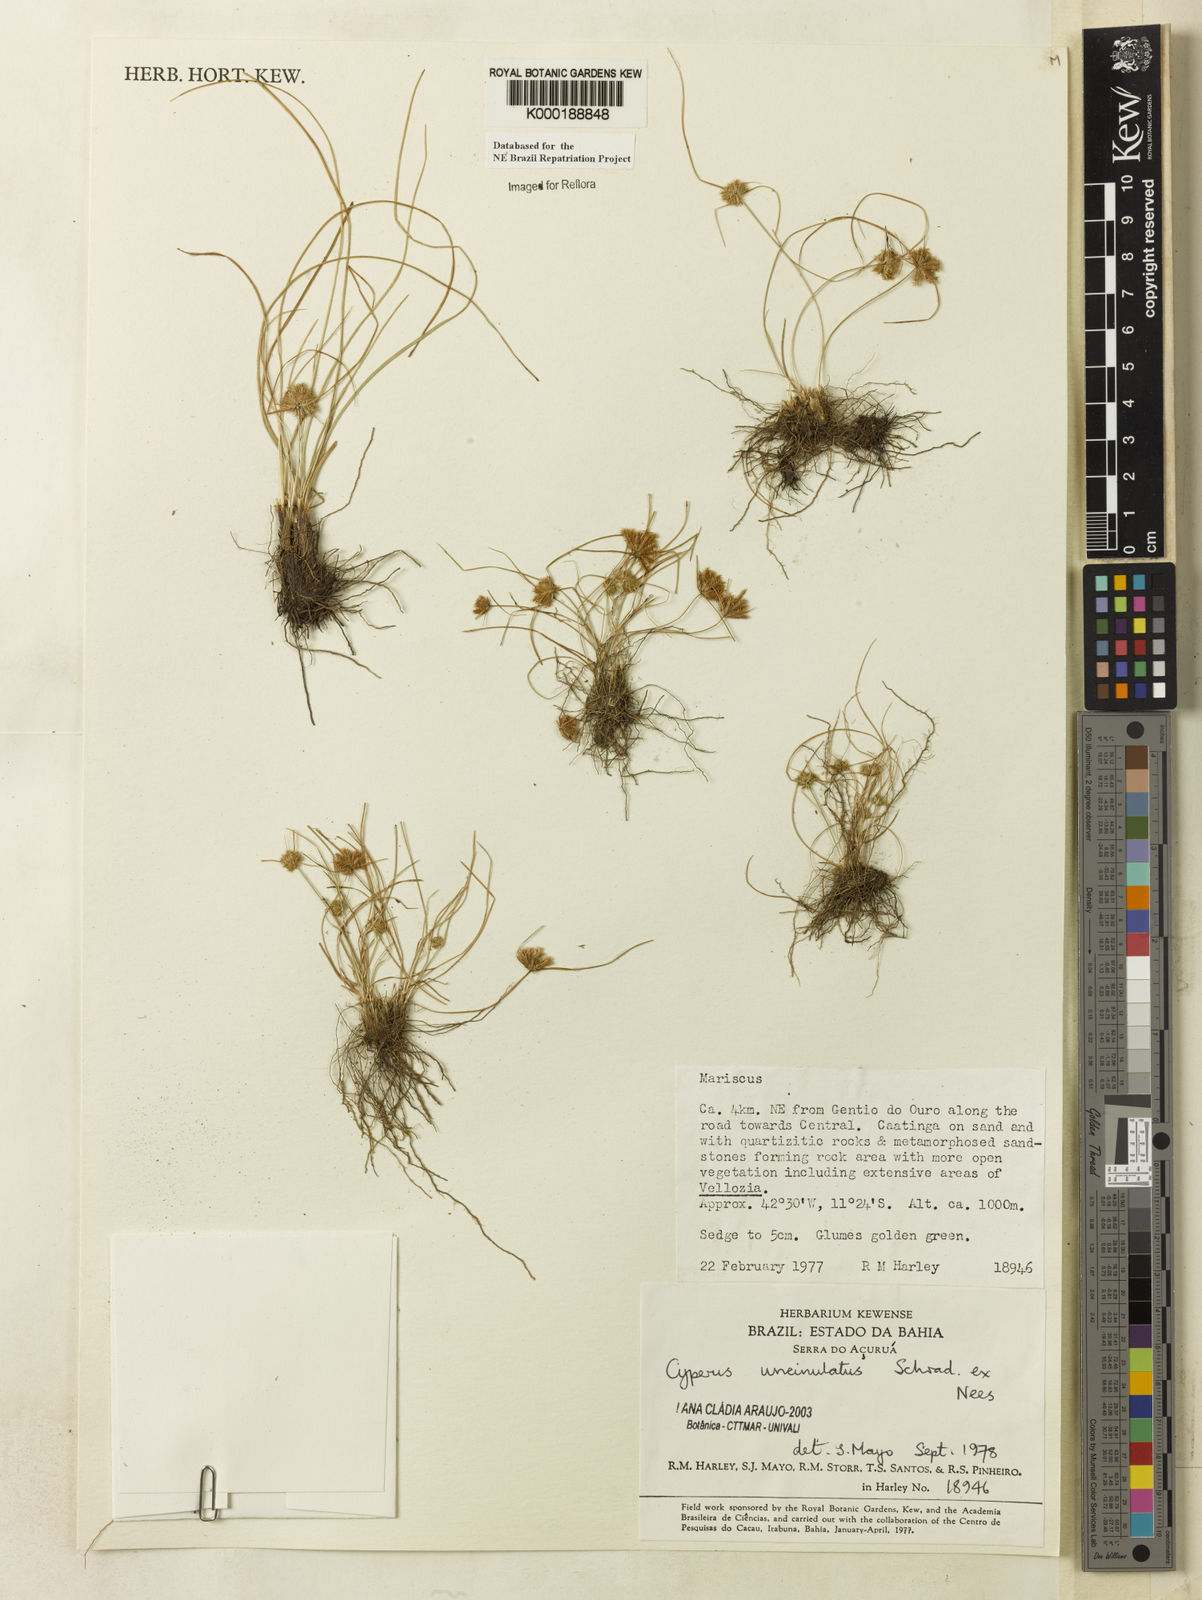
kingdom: Plantae
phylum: Tracheophyta
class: Liliopsida
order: Poales
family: Cyperaceae
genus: Cyperus
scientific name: Cyperus uncinulatus
